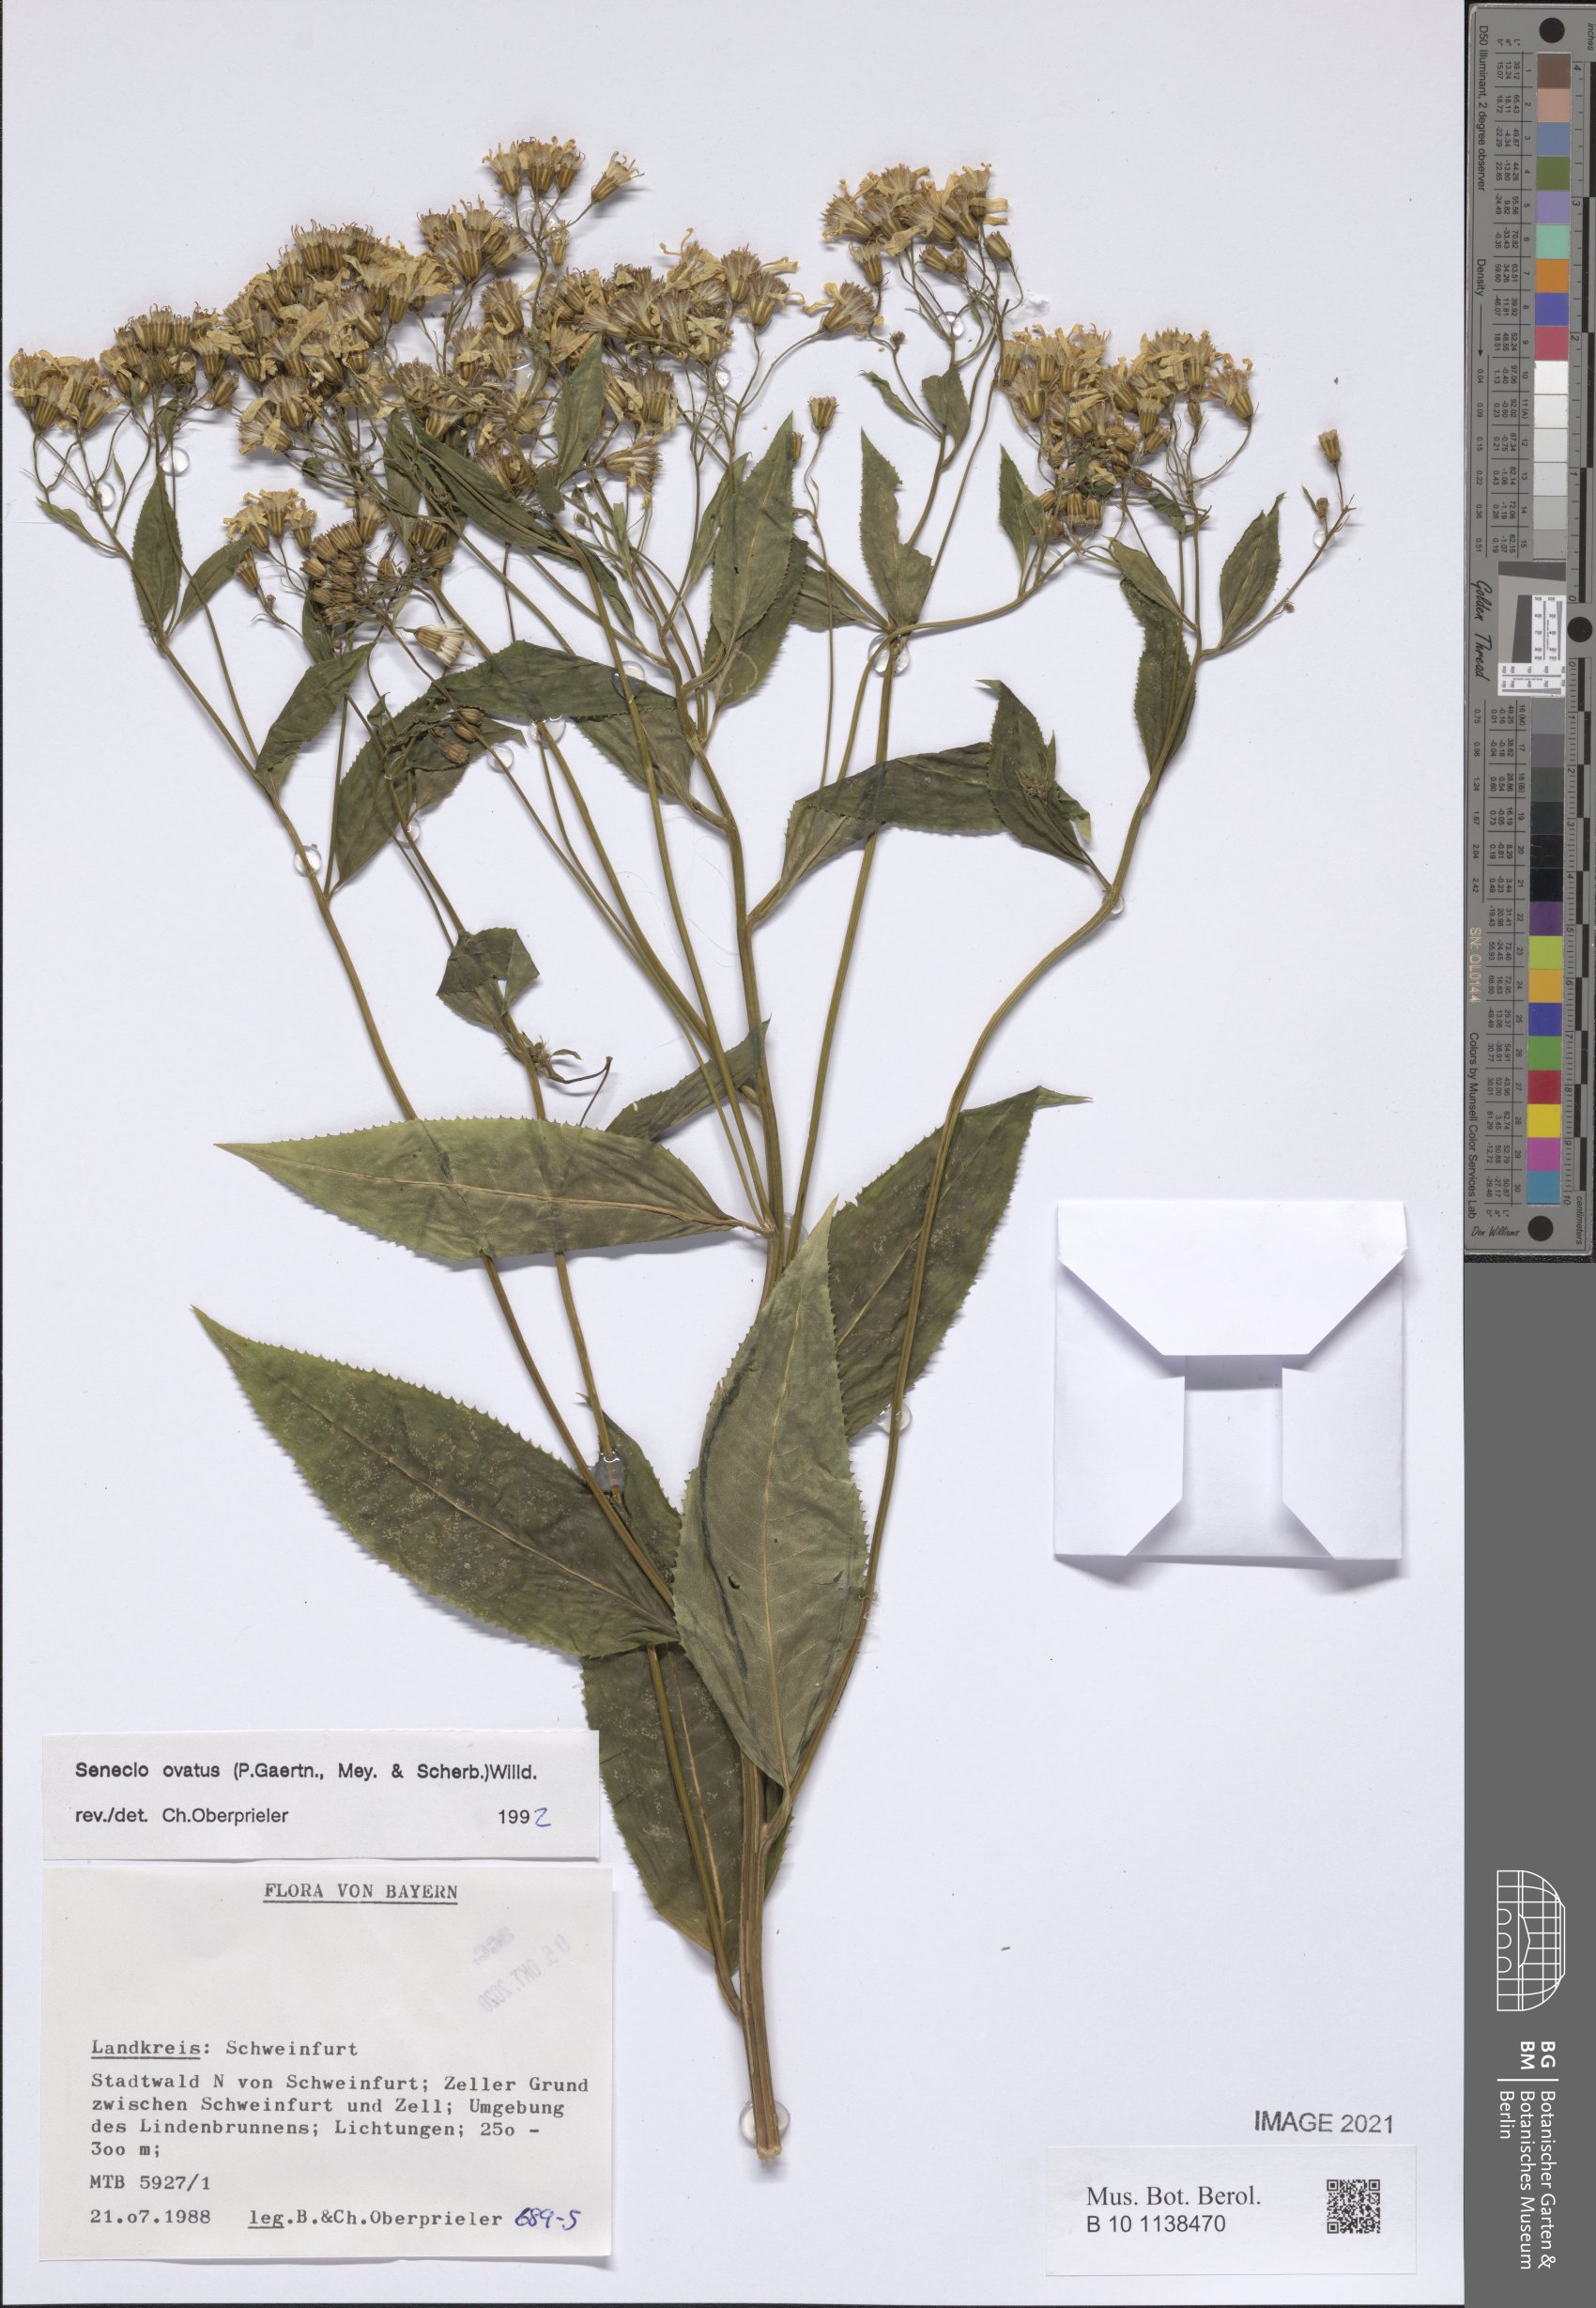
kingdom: Plantae
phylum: Tracheophyta
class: Magnoliopsida
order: Asterales
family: Asteraceae
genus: Senecio
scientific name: Senecio ovatus
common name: Wood ragwort
